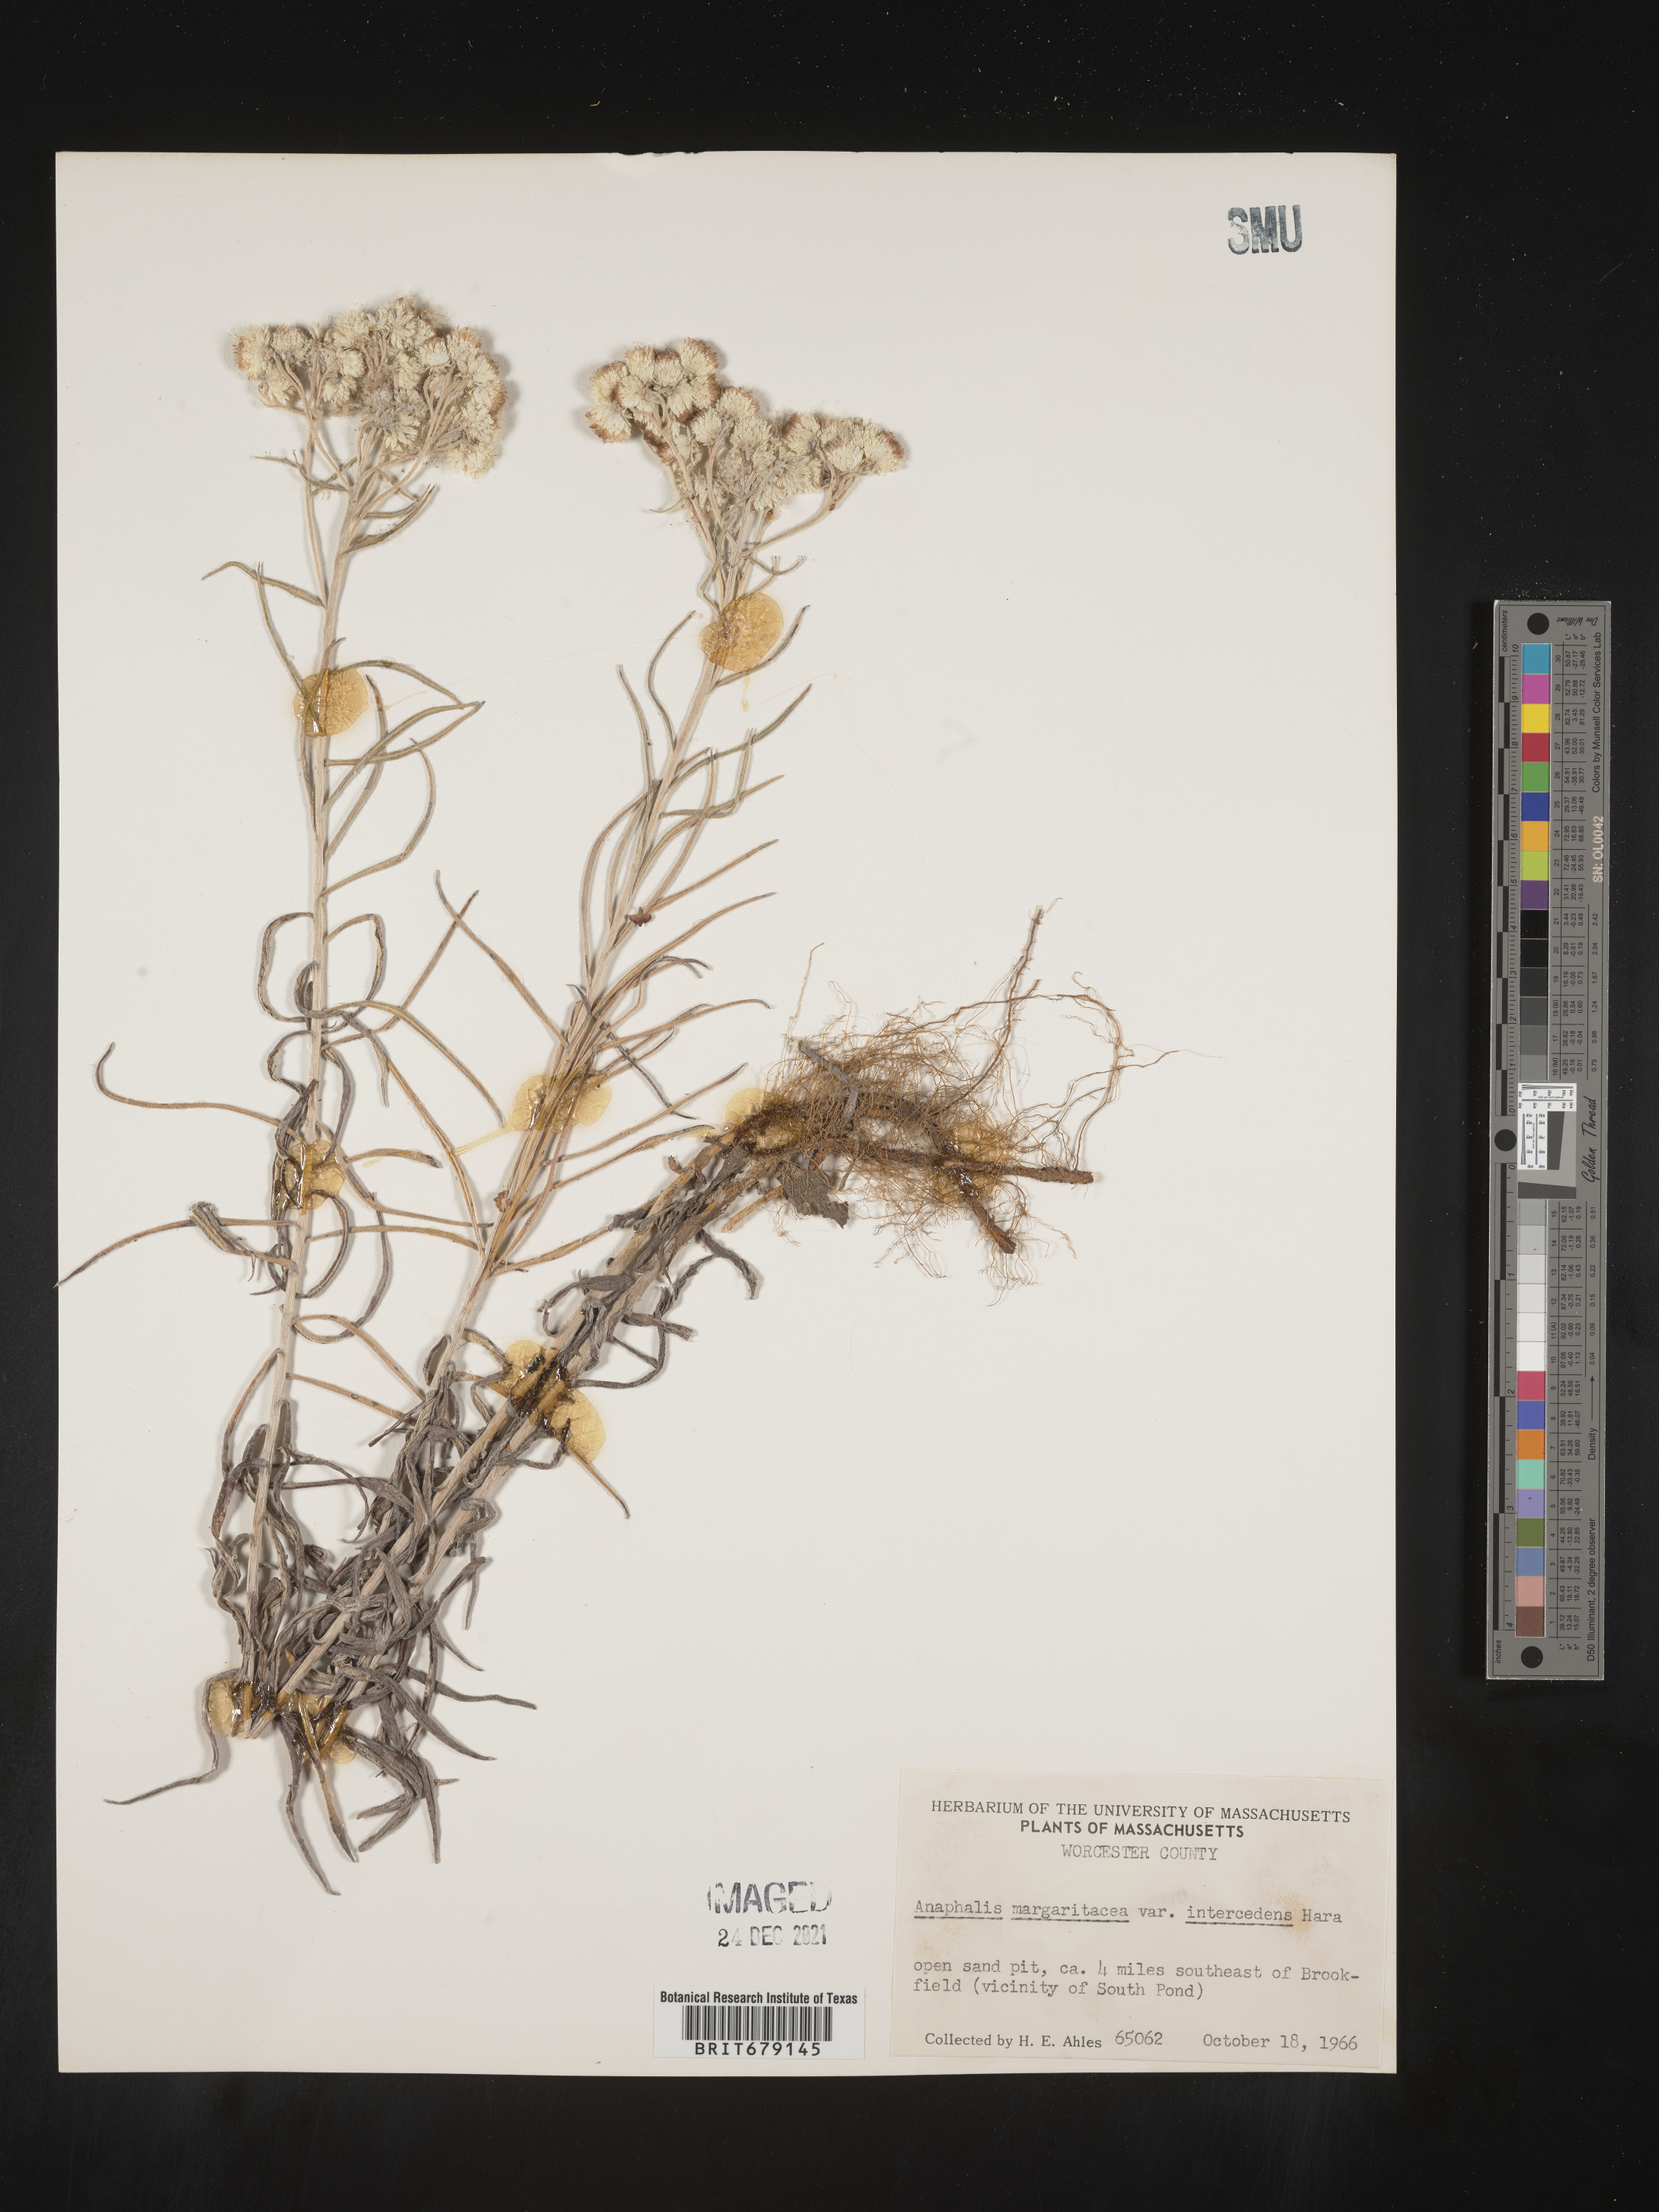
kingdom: Plantae
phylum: Tracheophyta
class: Magnoliopsida
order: Asterales
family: Asteraceae
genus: Anaphalis
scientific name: Anaphalis margaritacea
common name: Pearly everlasting
